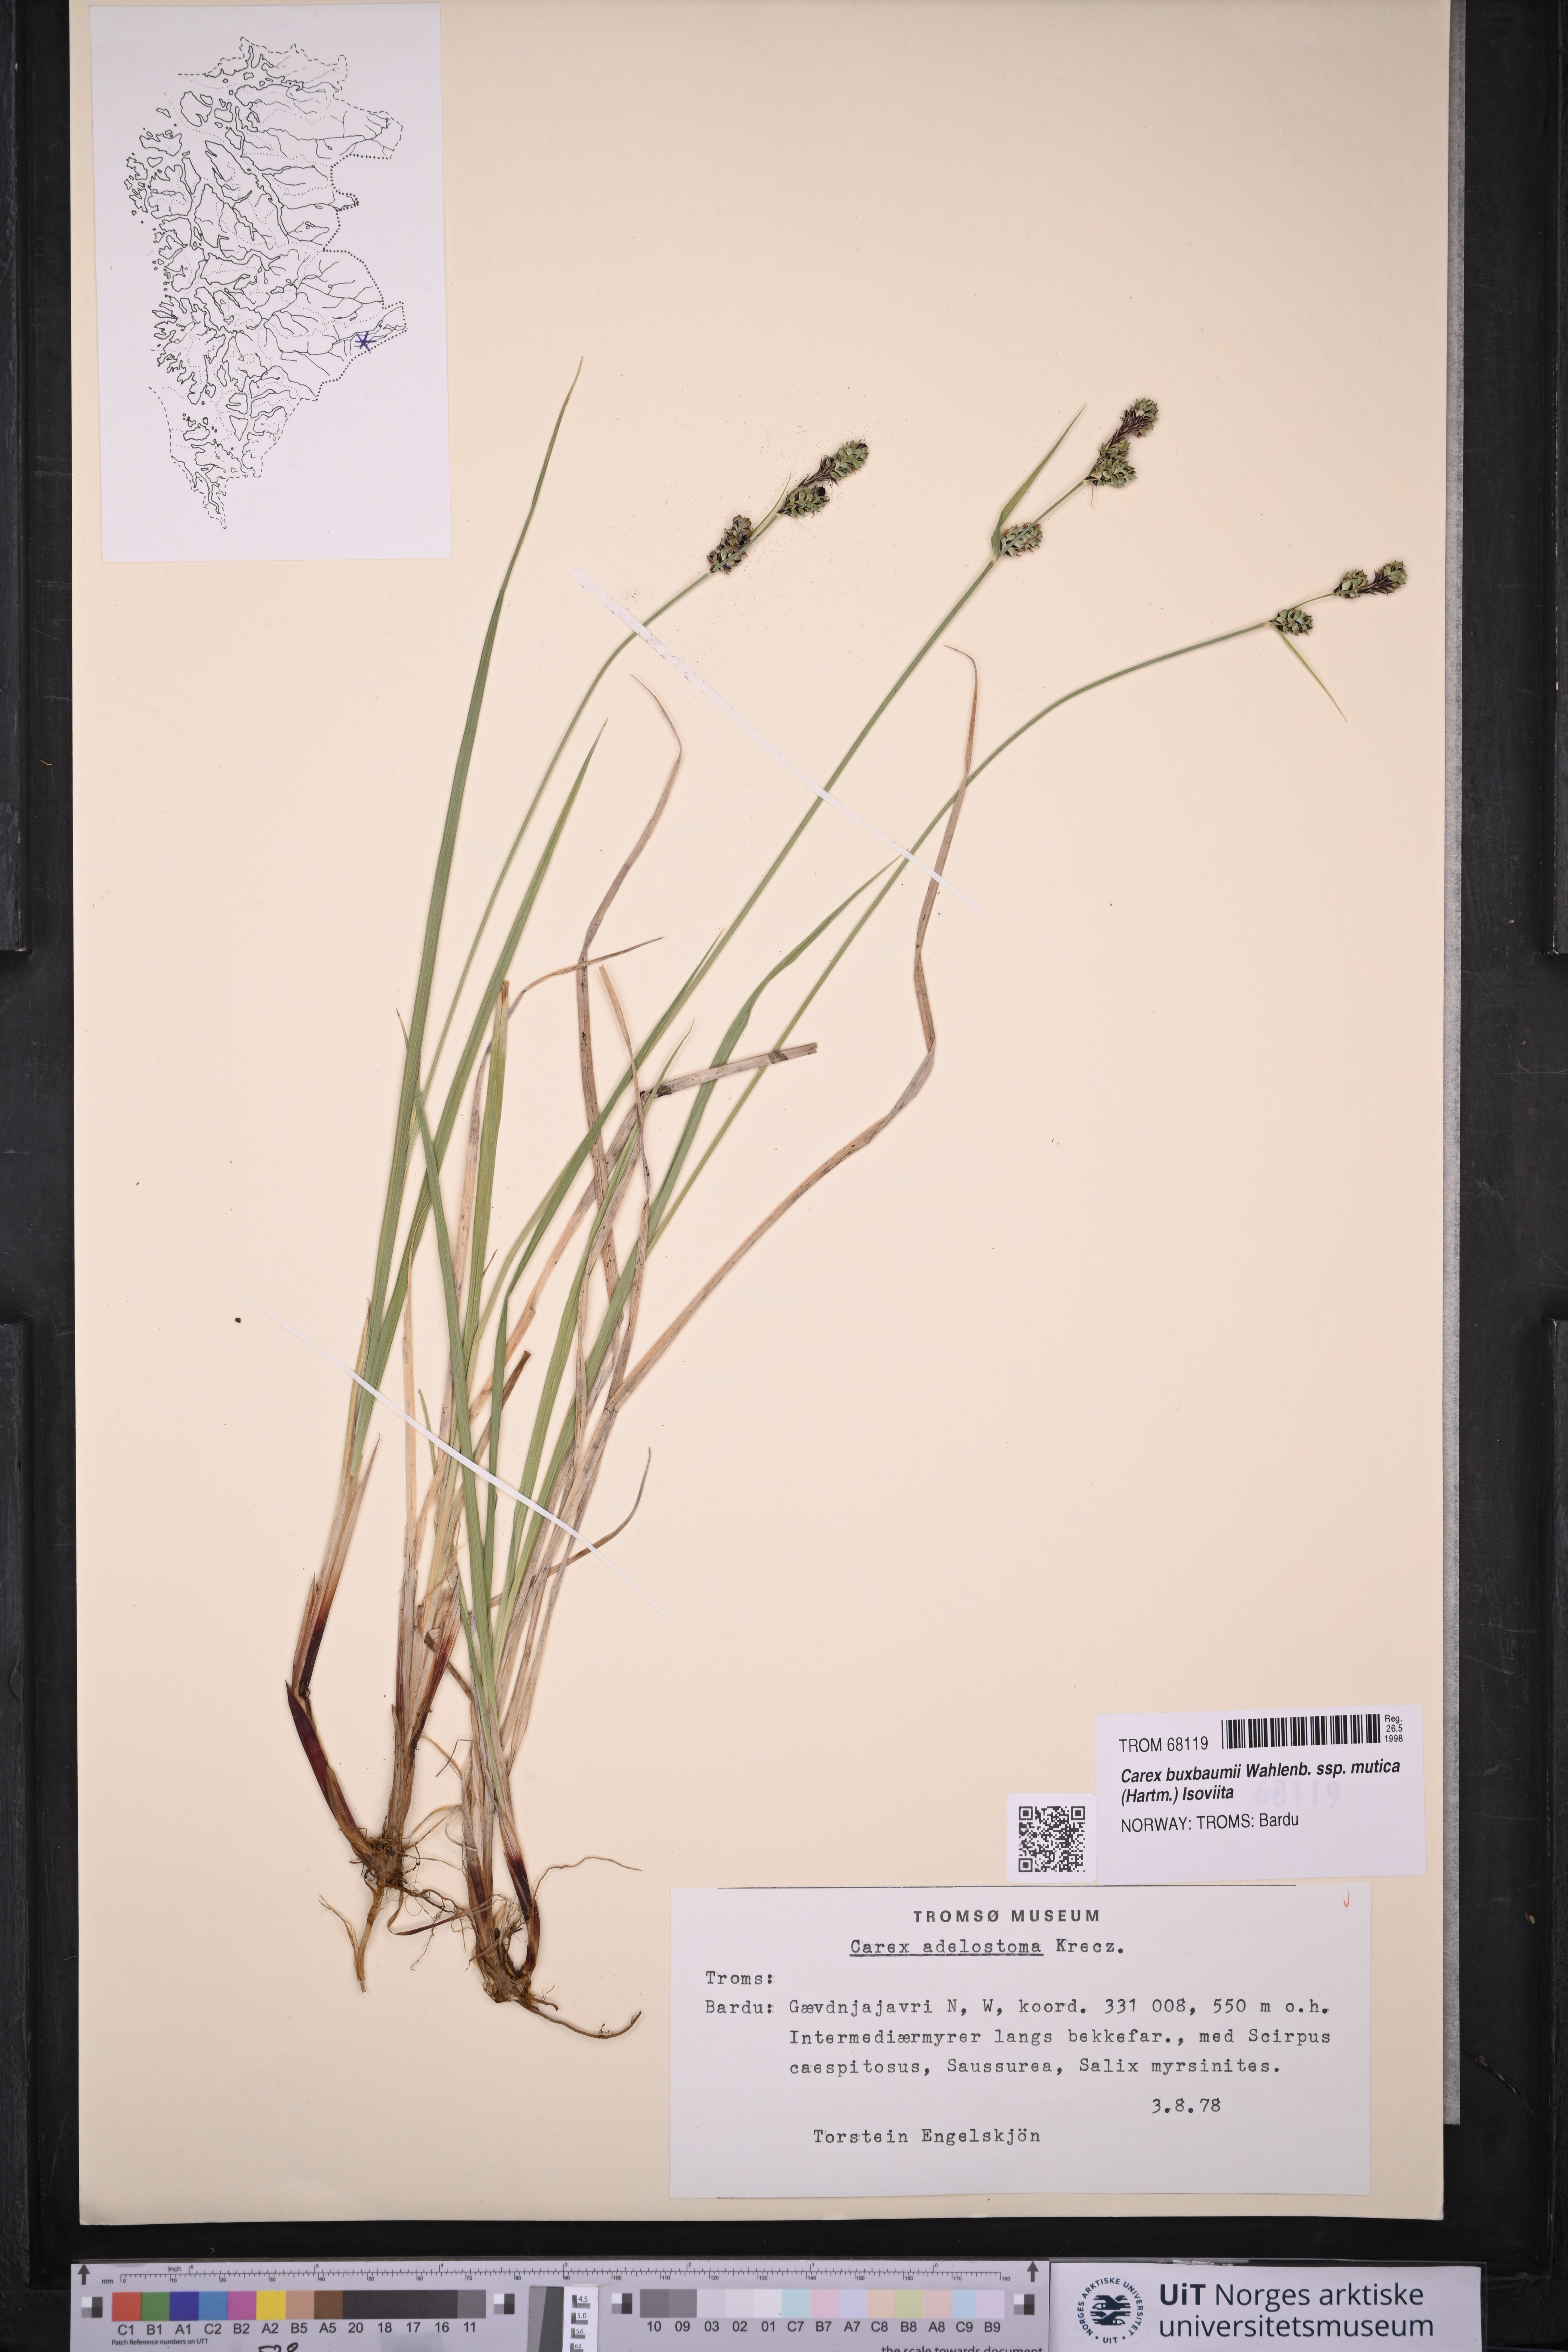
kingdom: Plantae
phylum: Tracheophyta
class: Liliopsida
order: Poales
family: Cyperaceae
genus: Carex
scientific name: Carex adelostoma
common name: Circumpolar sedge
